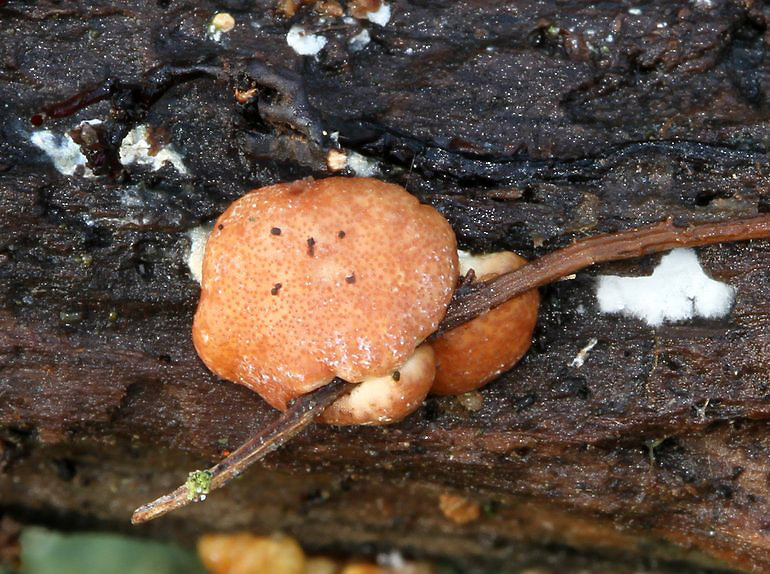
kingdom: Fungi
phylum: Ascomycota
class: Sordariomycetes
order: Hypocreales
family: Hypocreaceae
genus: Trichoderma
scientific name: Trichoderma europaeum
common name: rosabrun kødkerne
